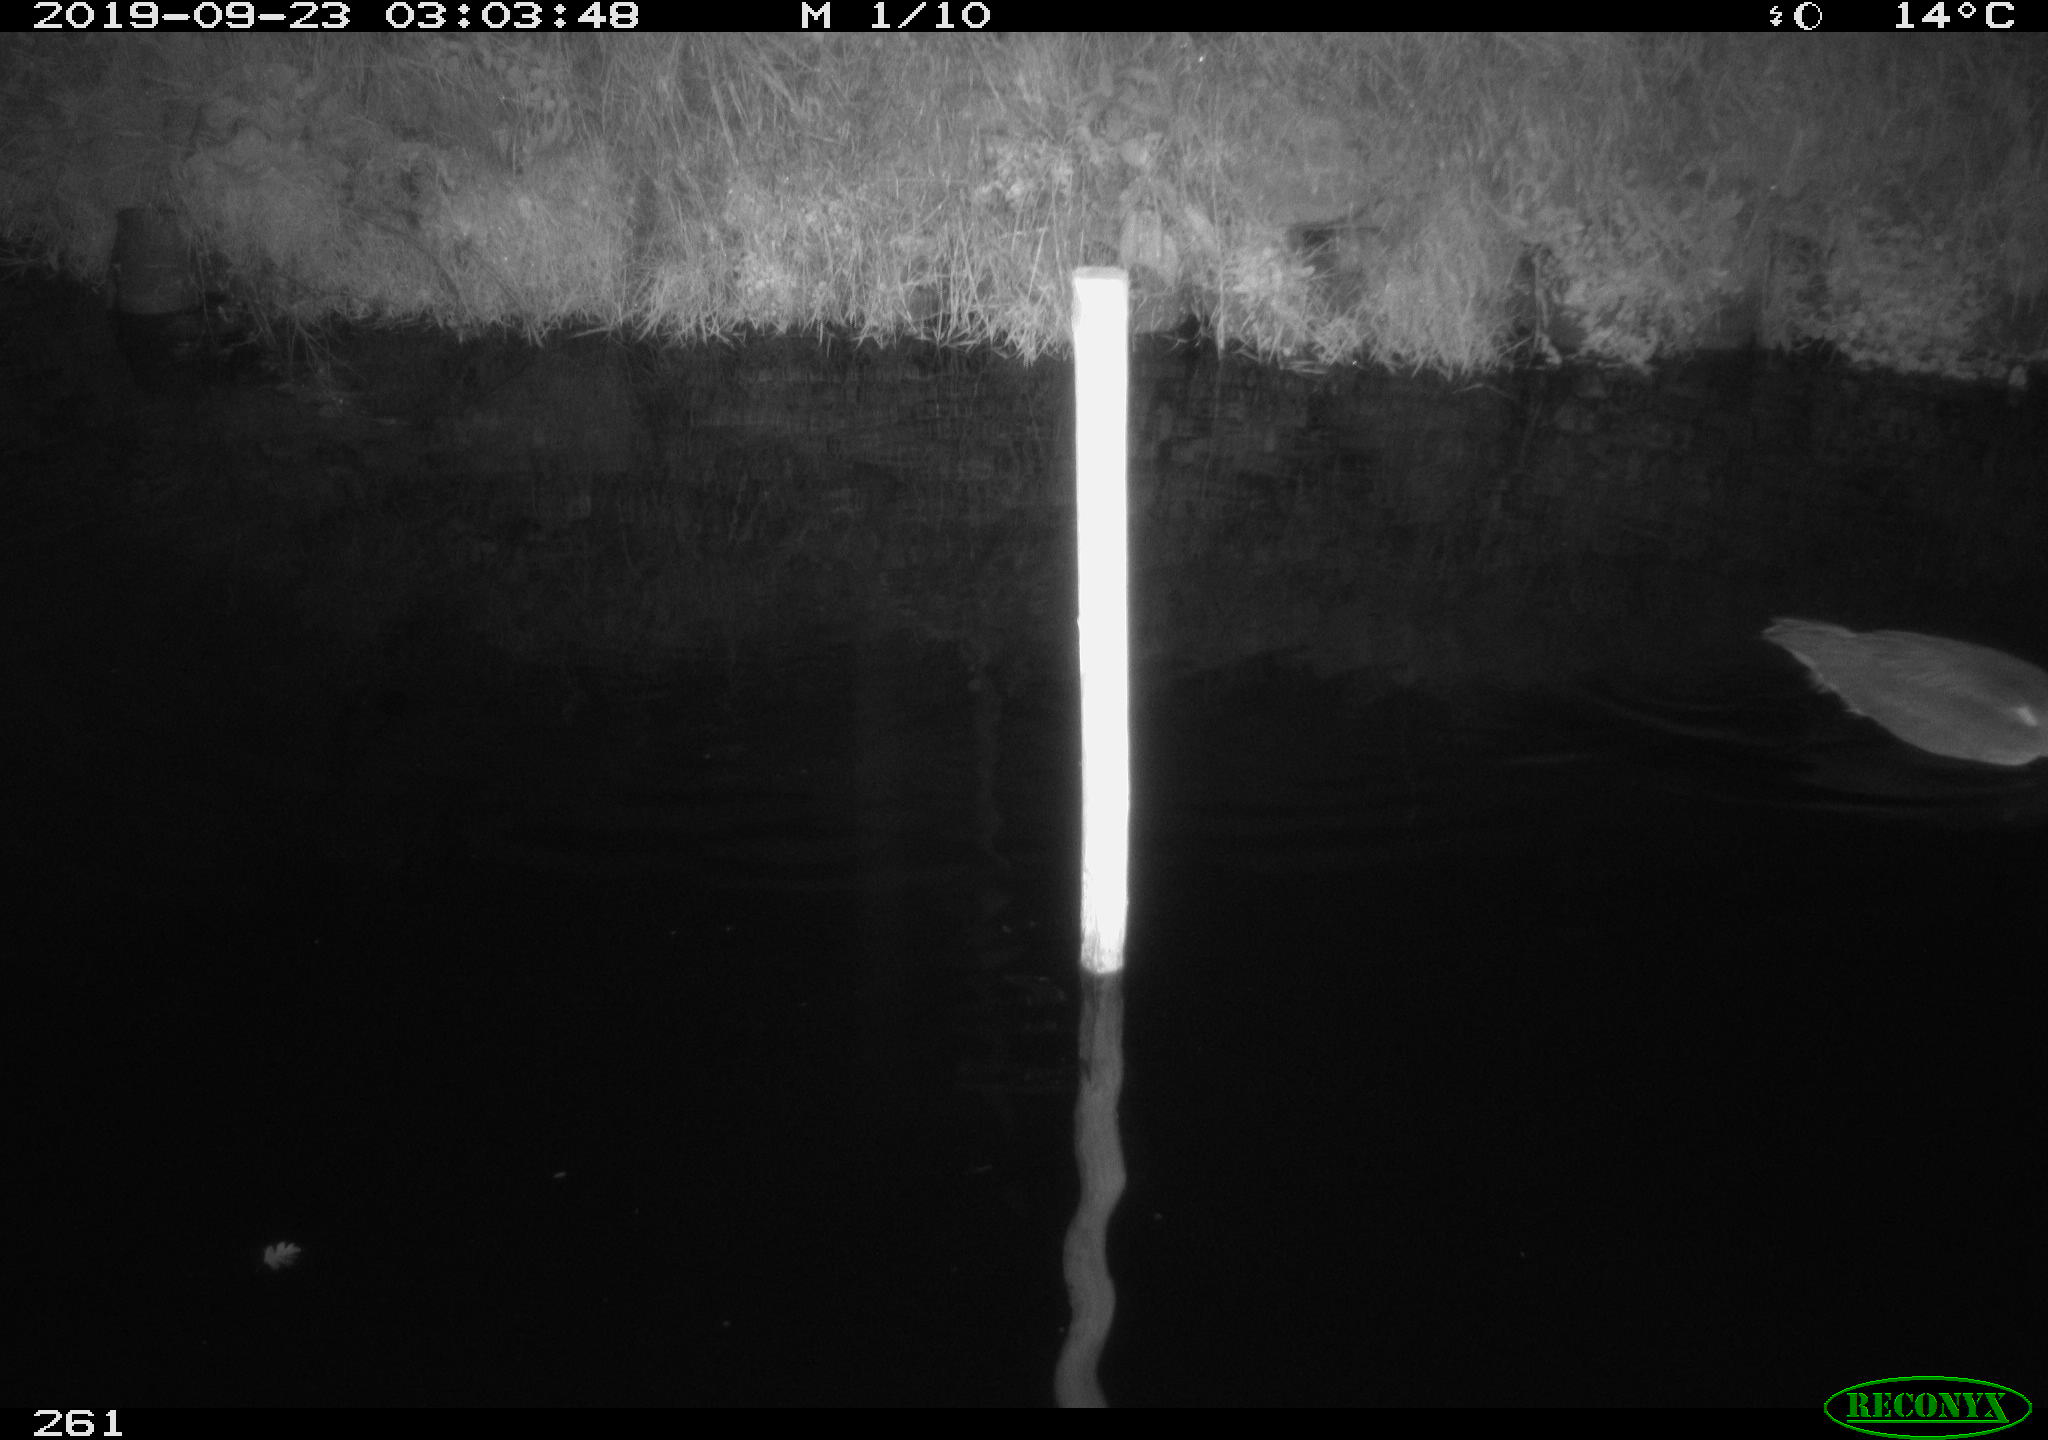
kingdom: Animalia
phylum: Chordata
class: Aves
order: Anseriformes
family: Anatidae
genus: Anas
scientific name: Anas platyrhynchos
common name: Mallard
